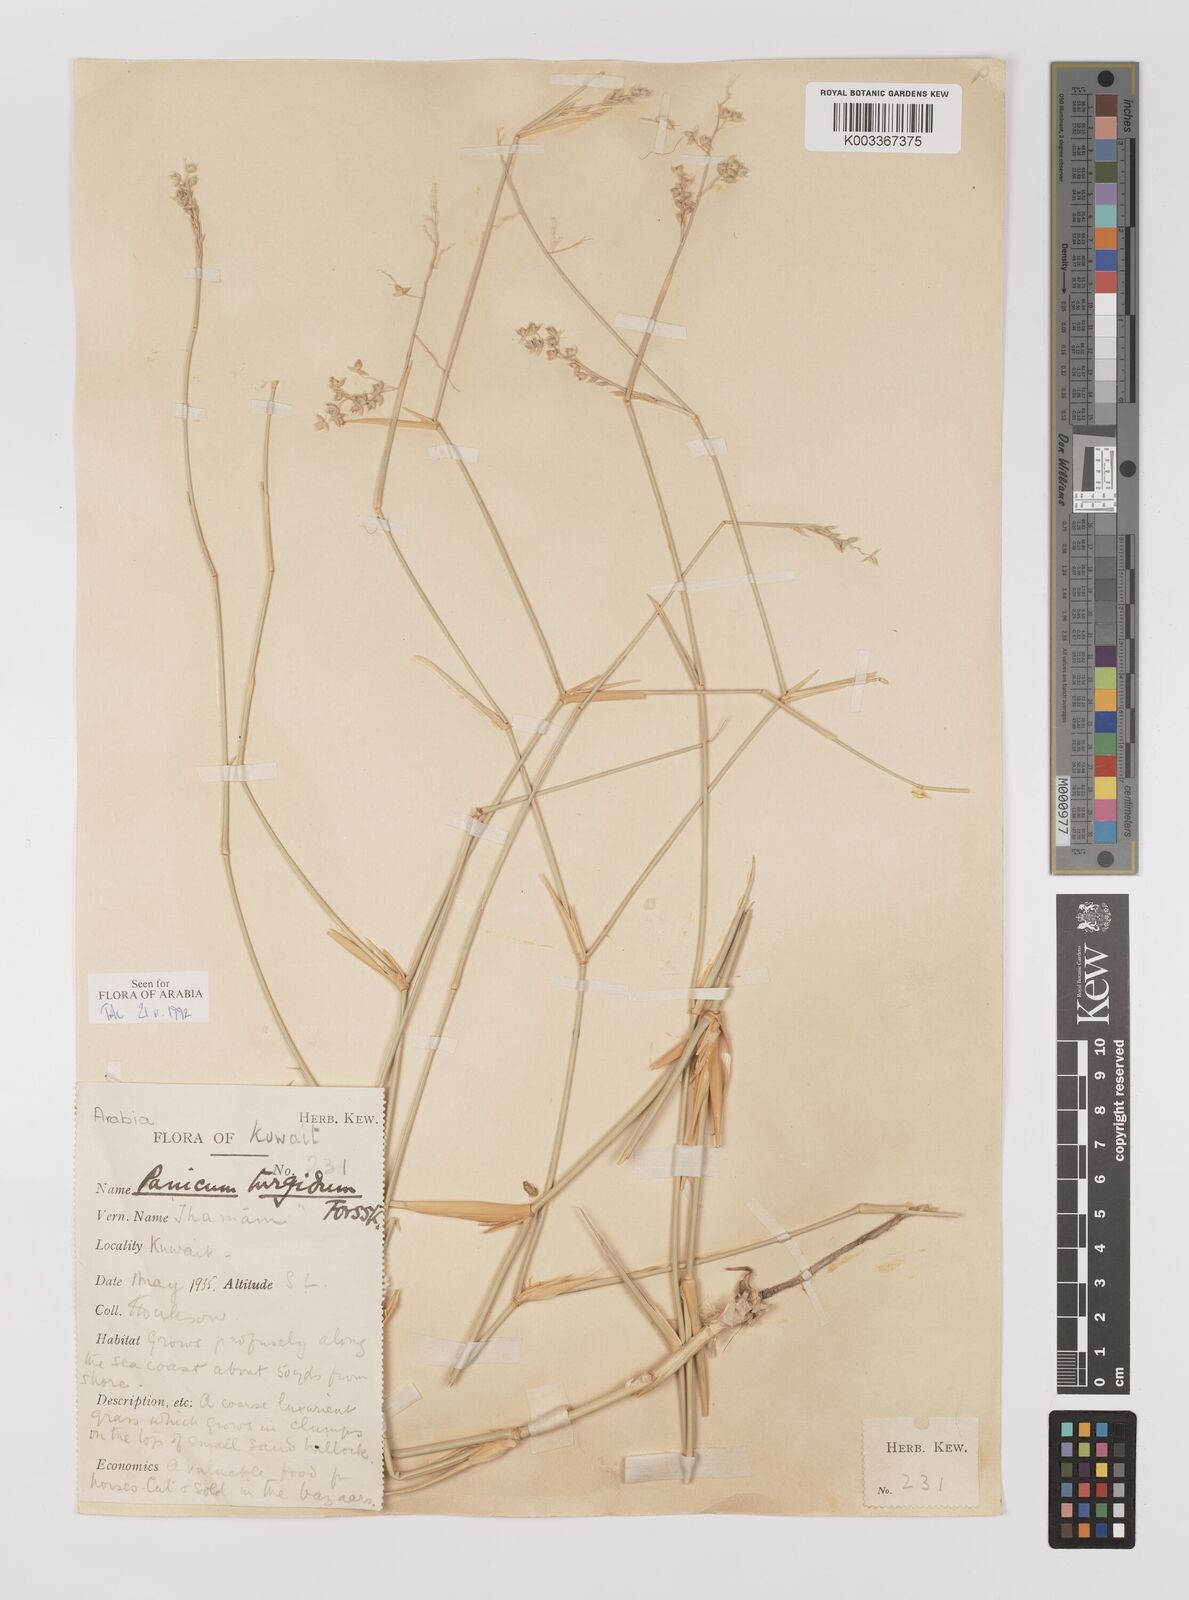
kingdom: Plantae
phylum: Tracheophyta
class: Liliopsida
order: Poales
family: Poaceae
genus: Panicum
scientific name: Panicum turgidum
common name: Desert grass
